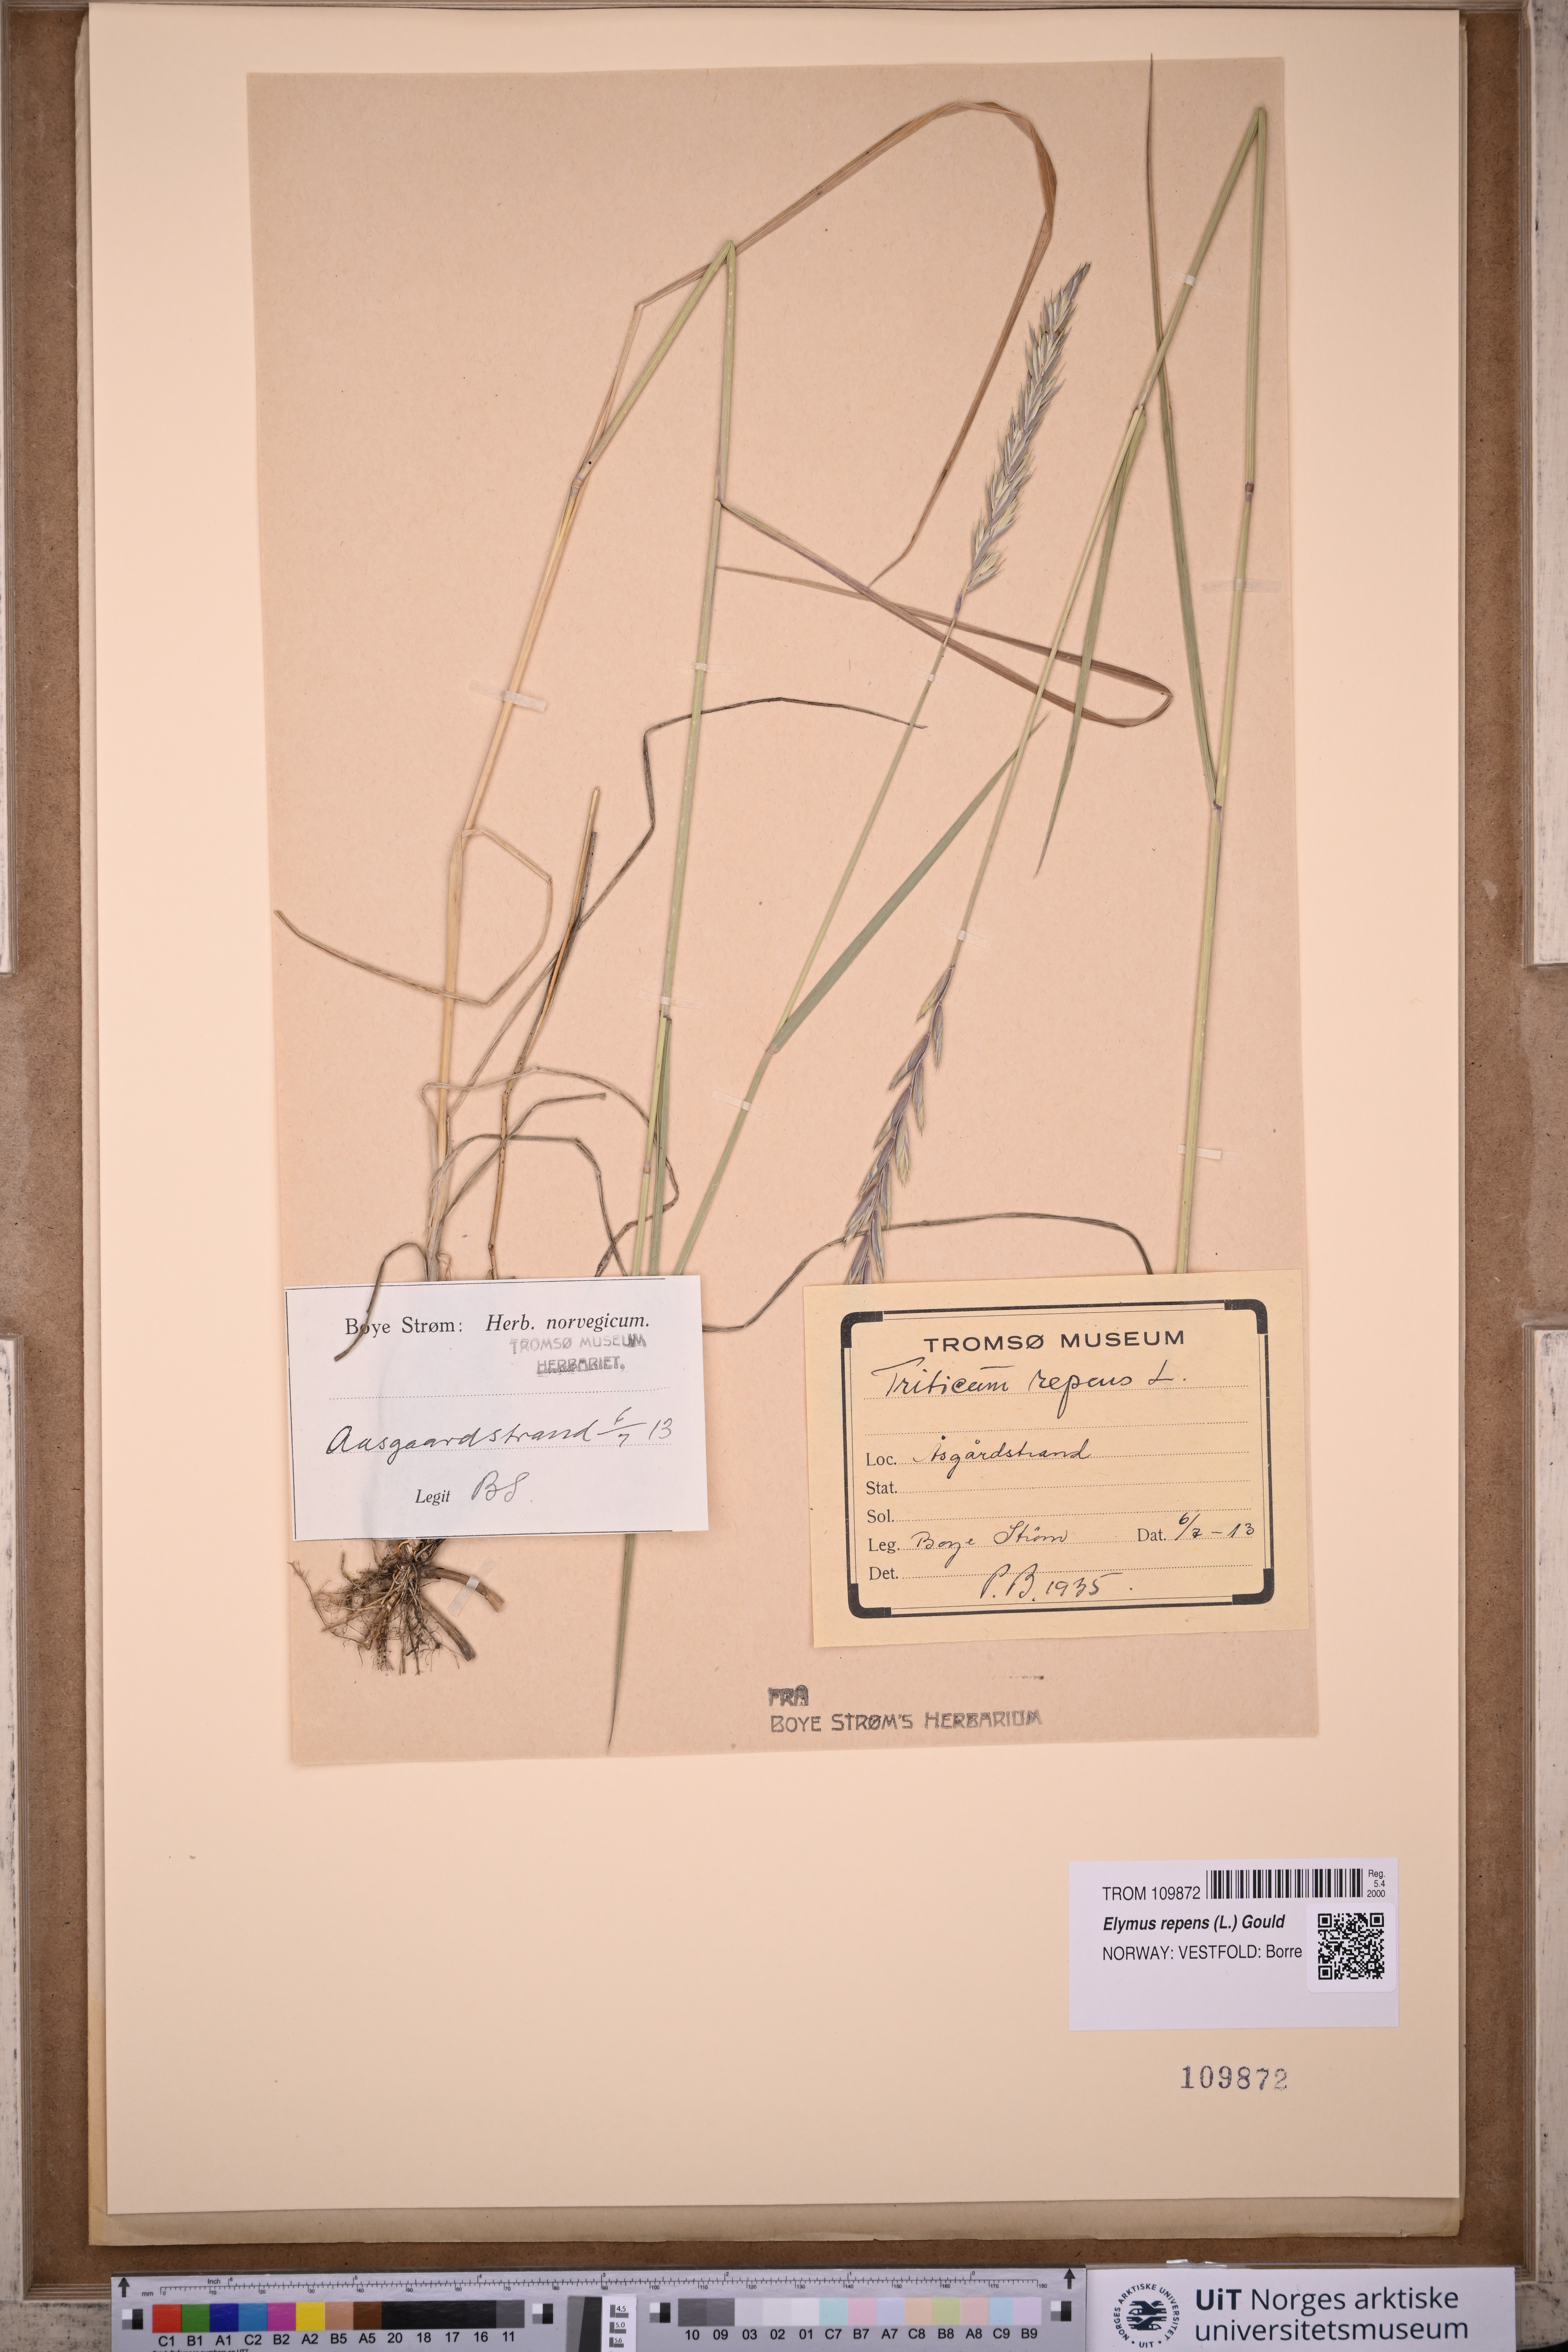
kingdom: Plantae
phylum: Tracheophyta
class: Liliopsida
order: Poales
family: Poaceae
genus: Elymus
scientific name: Elymus repens
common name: Quackgrass
